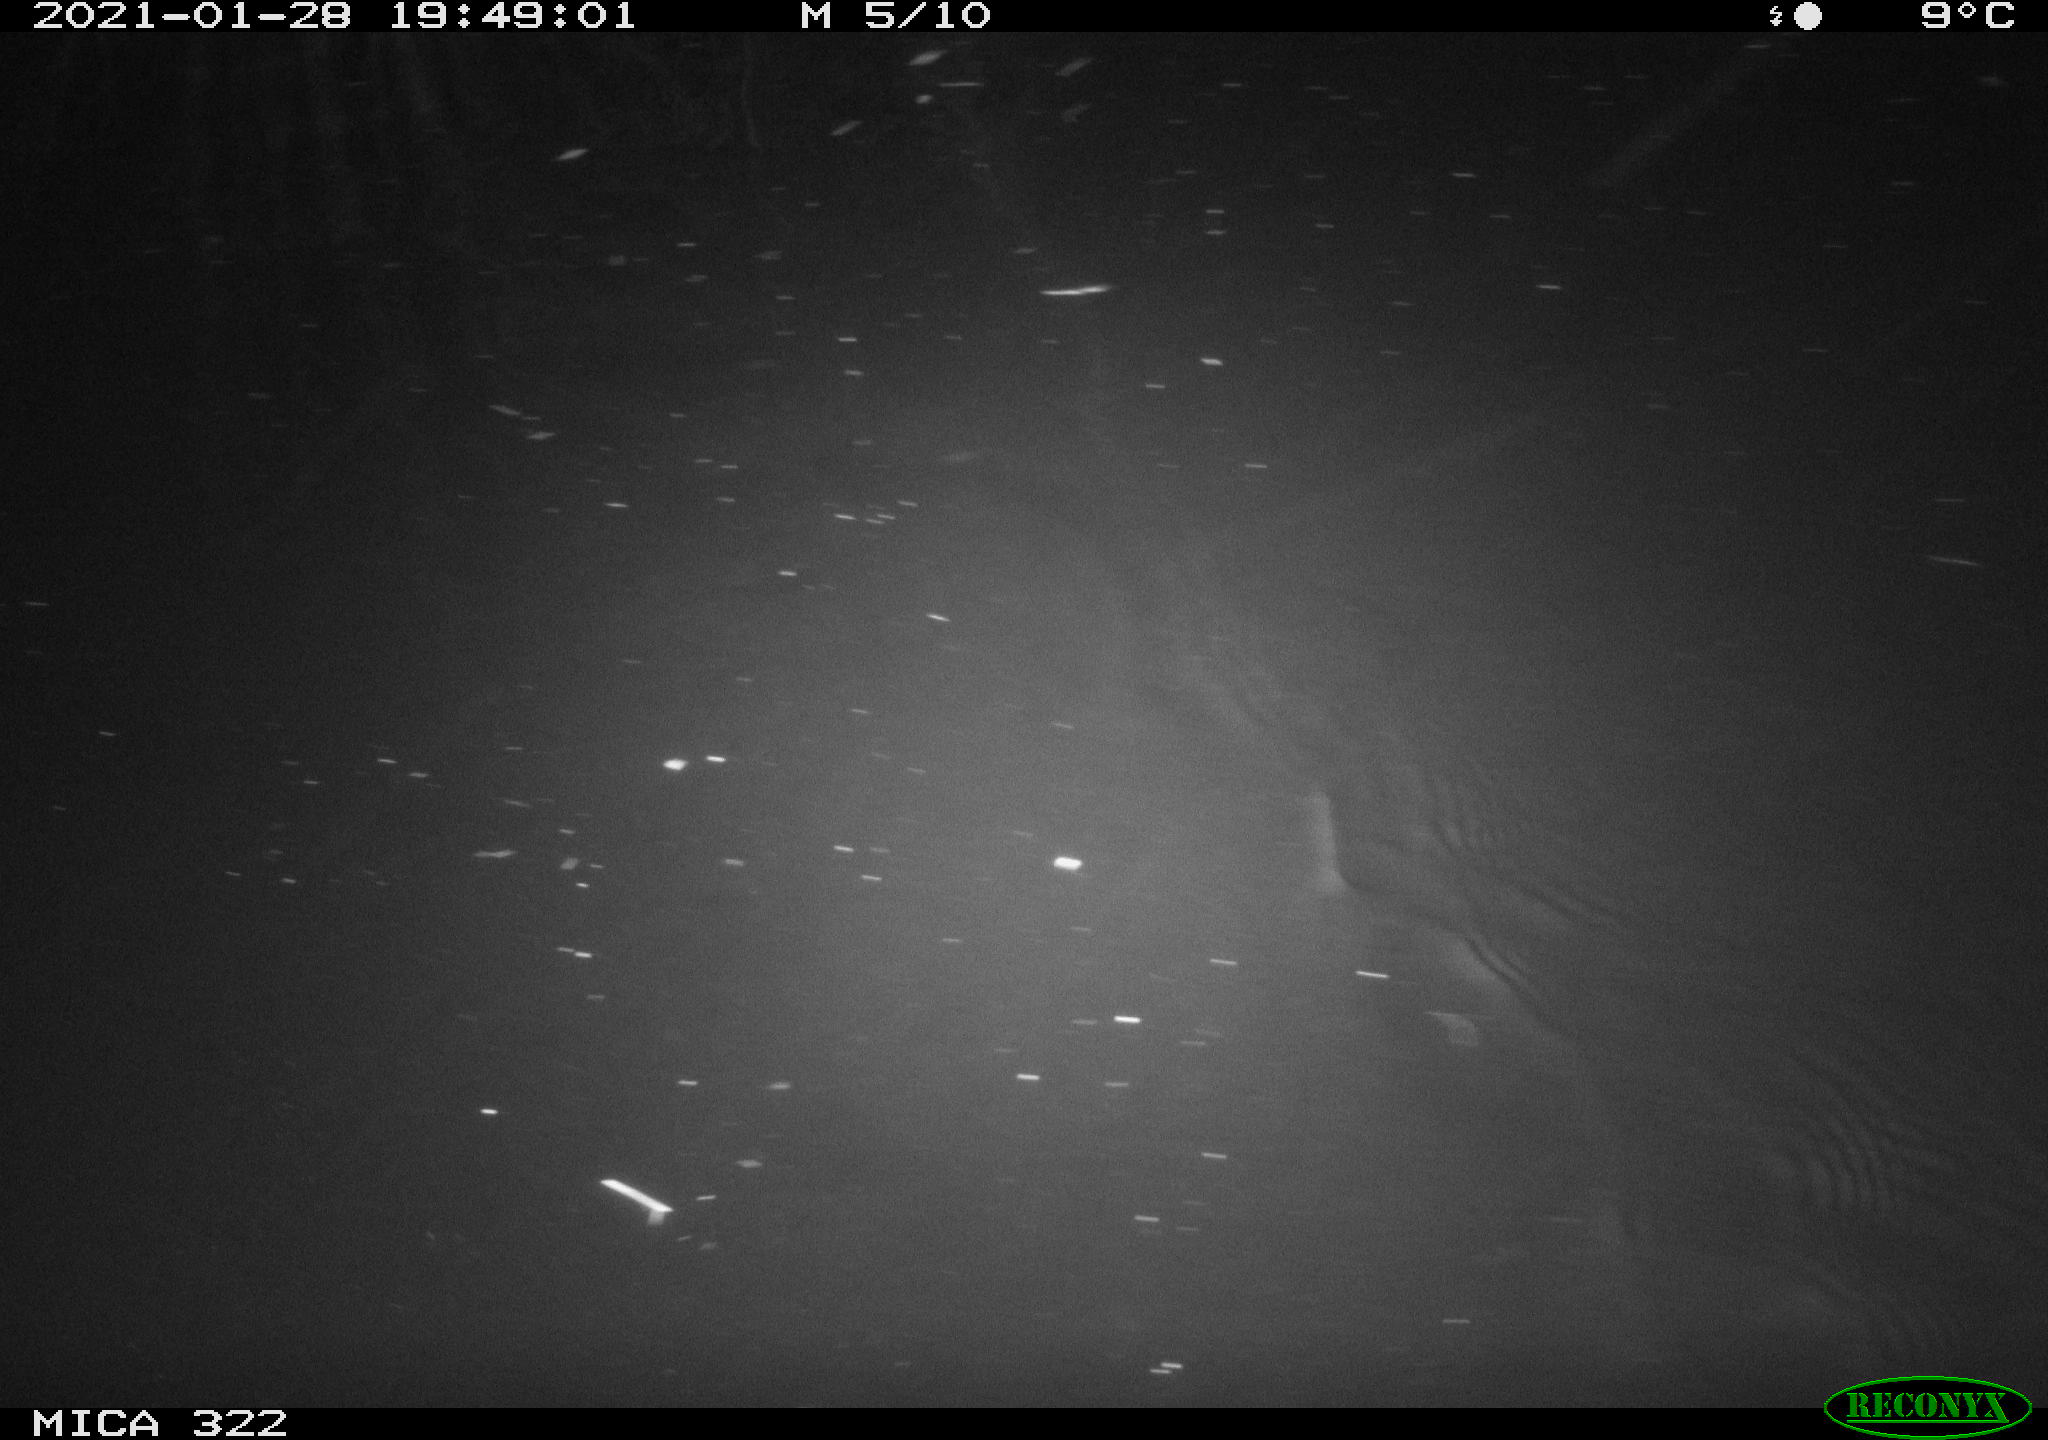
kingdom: Animalia
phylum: Chordata
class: Mammalia
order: Rodentia
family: Muridae
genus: Rattus
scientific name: Rattus norvegicus
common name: Brown rat
